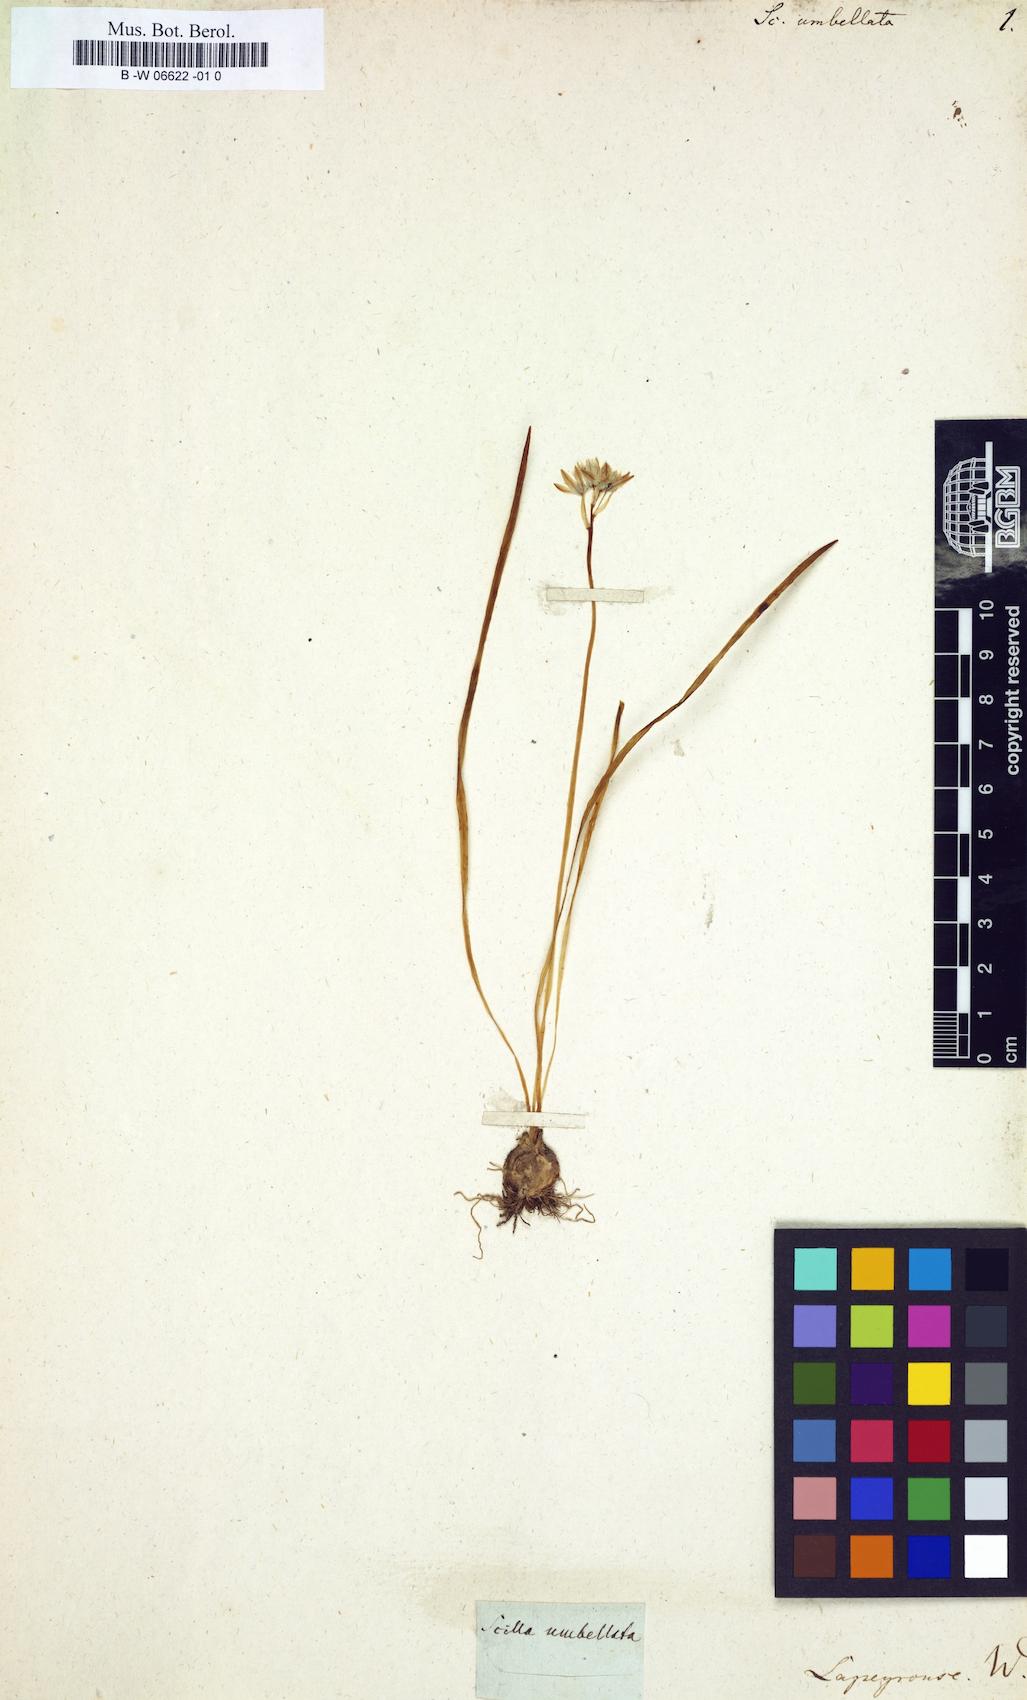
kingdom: Plantae
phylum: Tracheophyta
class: Liliopsida
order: Asparagales
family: Asparagaceae
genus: Scilla
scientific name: Scilla verna
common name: Spring squill
